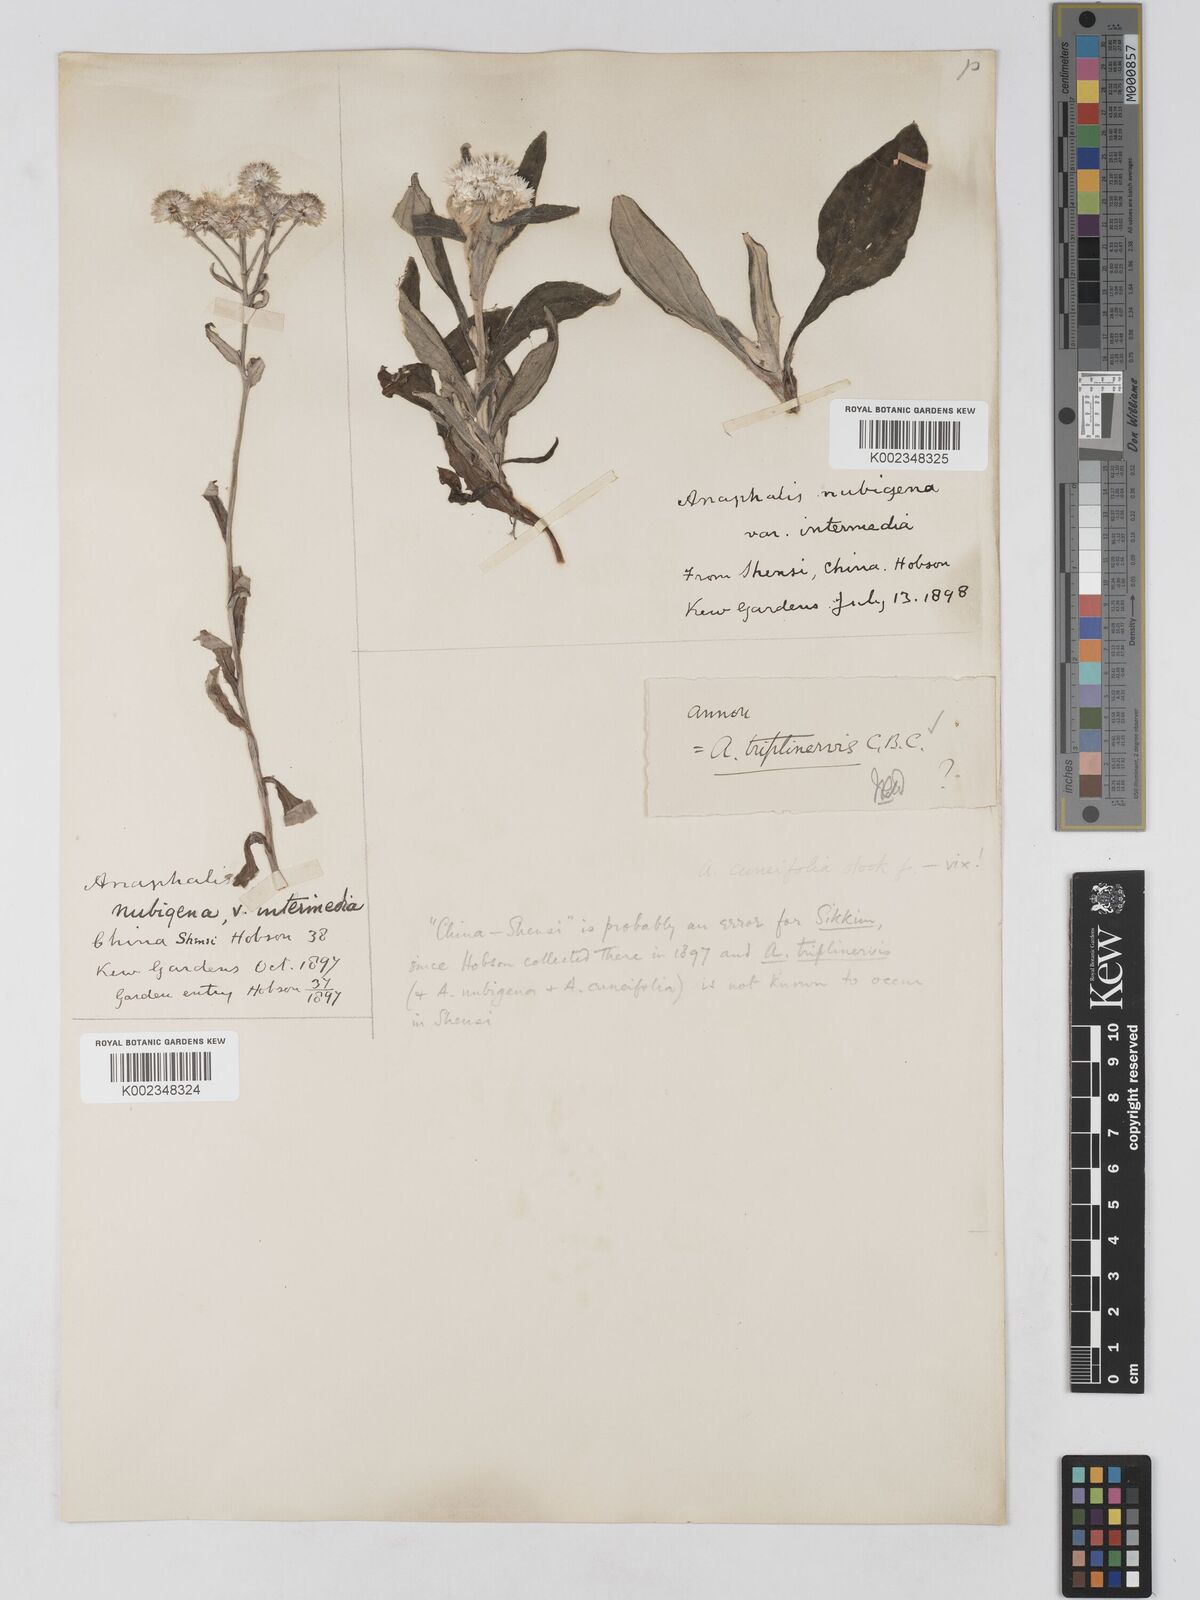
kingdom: Plantae
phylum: Tracheophyta
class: Magnoliopsida
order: Asterales
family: Asteraceae
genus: Anaphalis
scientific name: Anaphalis triplinervis
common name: Pearly everlasting
